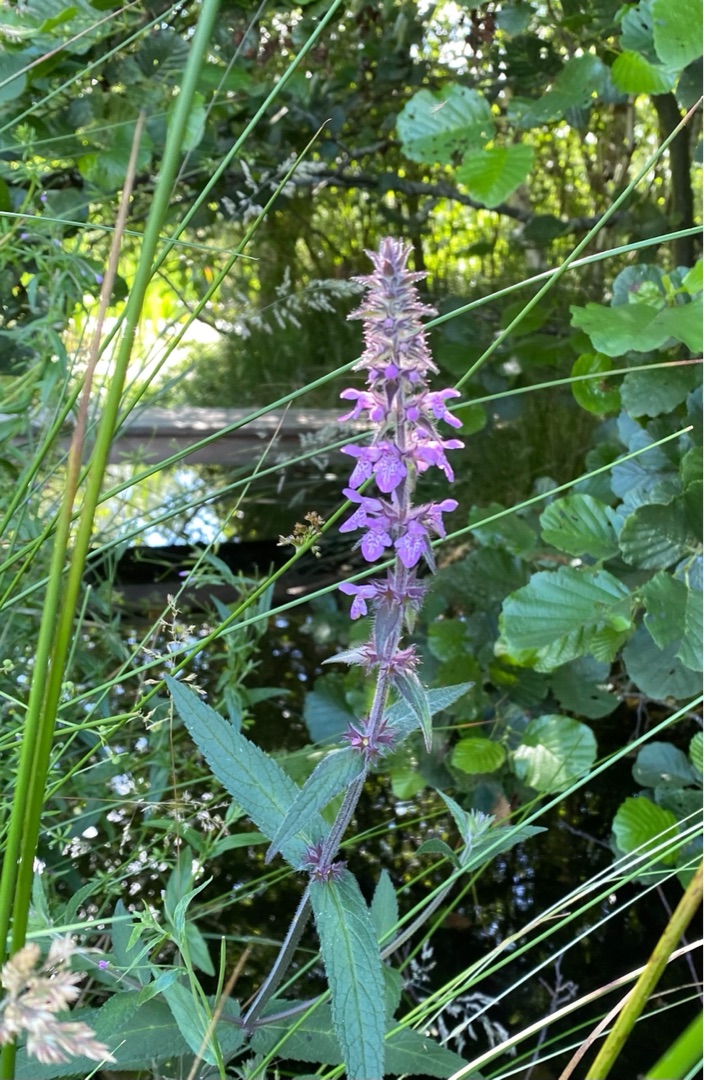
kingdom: Plantae
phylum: Tracheophyta
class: Magnoliopsida
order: Lamiales
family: Lamiaceae
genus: Stachys
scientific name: Stachys palustris
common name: Kær-galtetand
